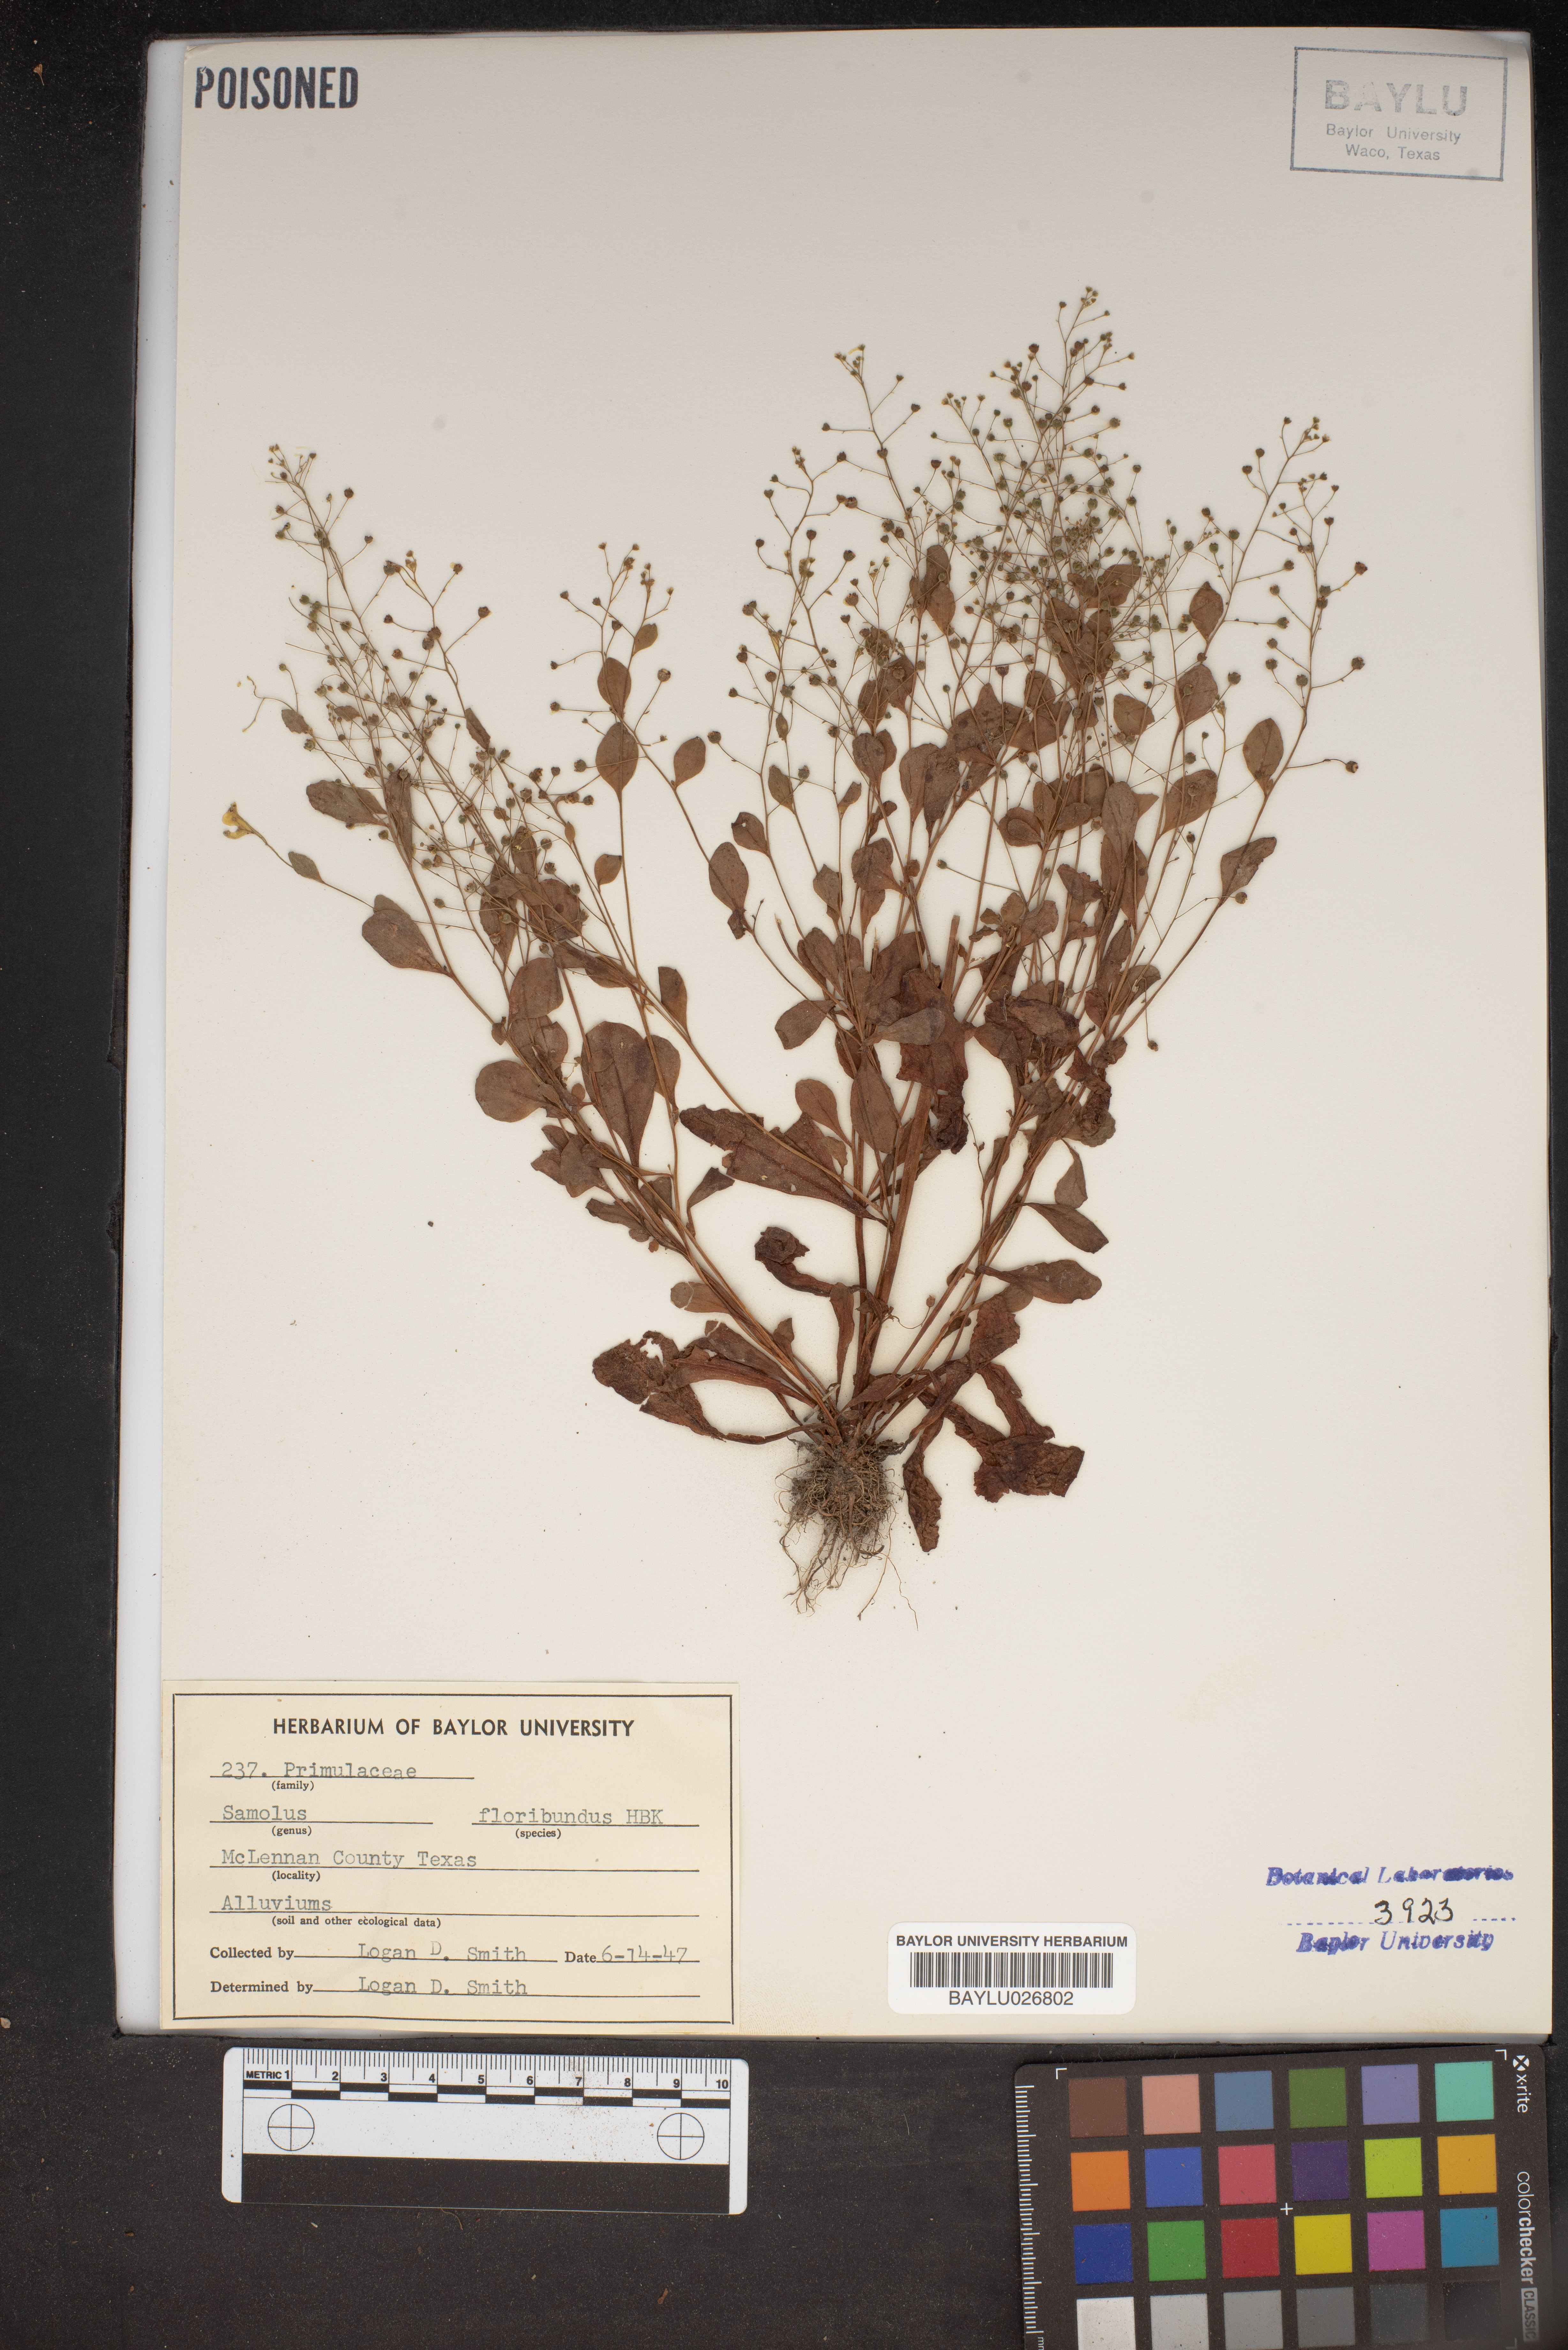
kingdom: Plantae
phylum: Tracheophyta
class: Magnoliopsida
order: Ericales
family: Primulaceae
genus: Samolus
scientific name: Samolus parviflorus
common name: False water pimpernel
